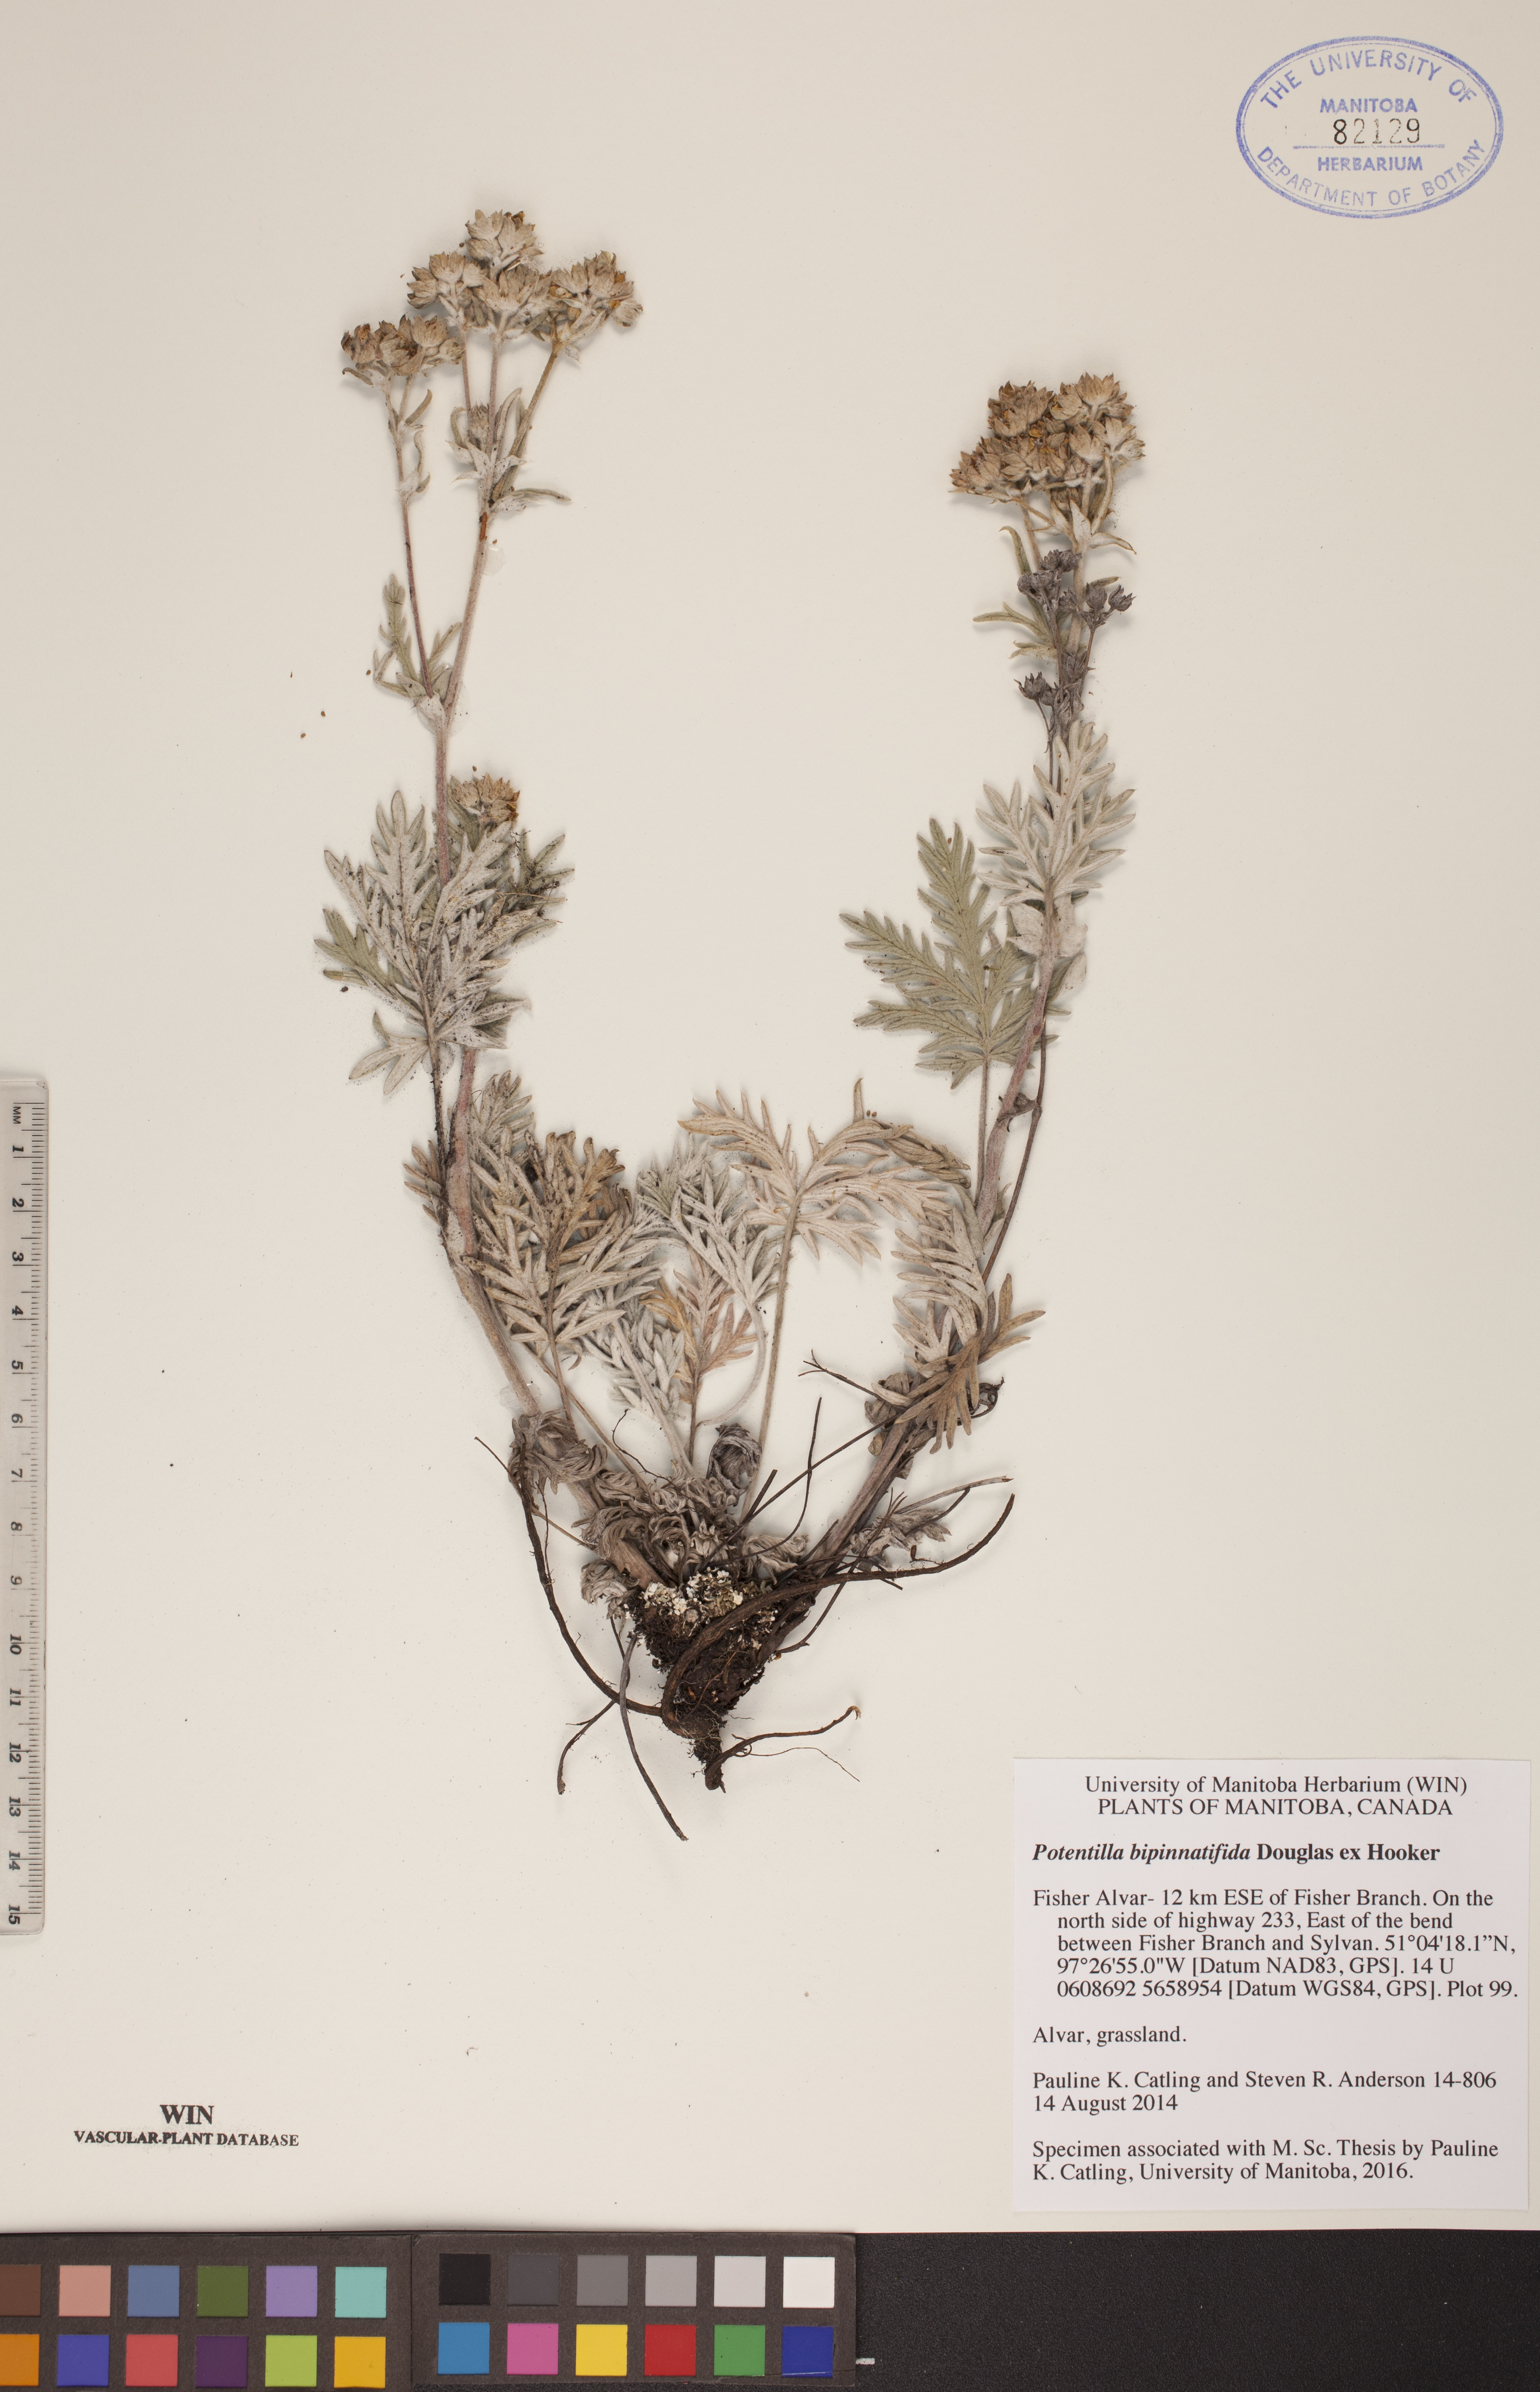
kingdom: Plantae
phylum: Tracheophyta
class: Magnoliopsida
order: Rosales
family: Rosaceae
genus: Potentilla
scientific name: Potentilla bipinnatifida
